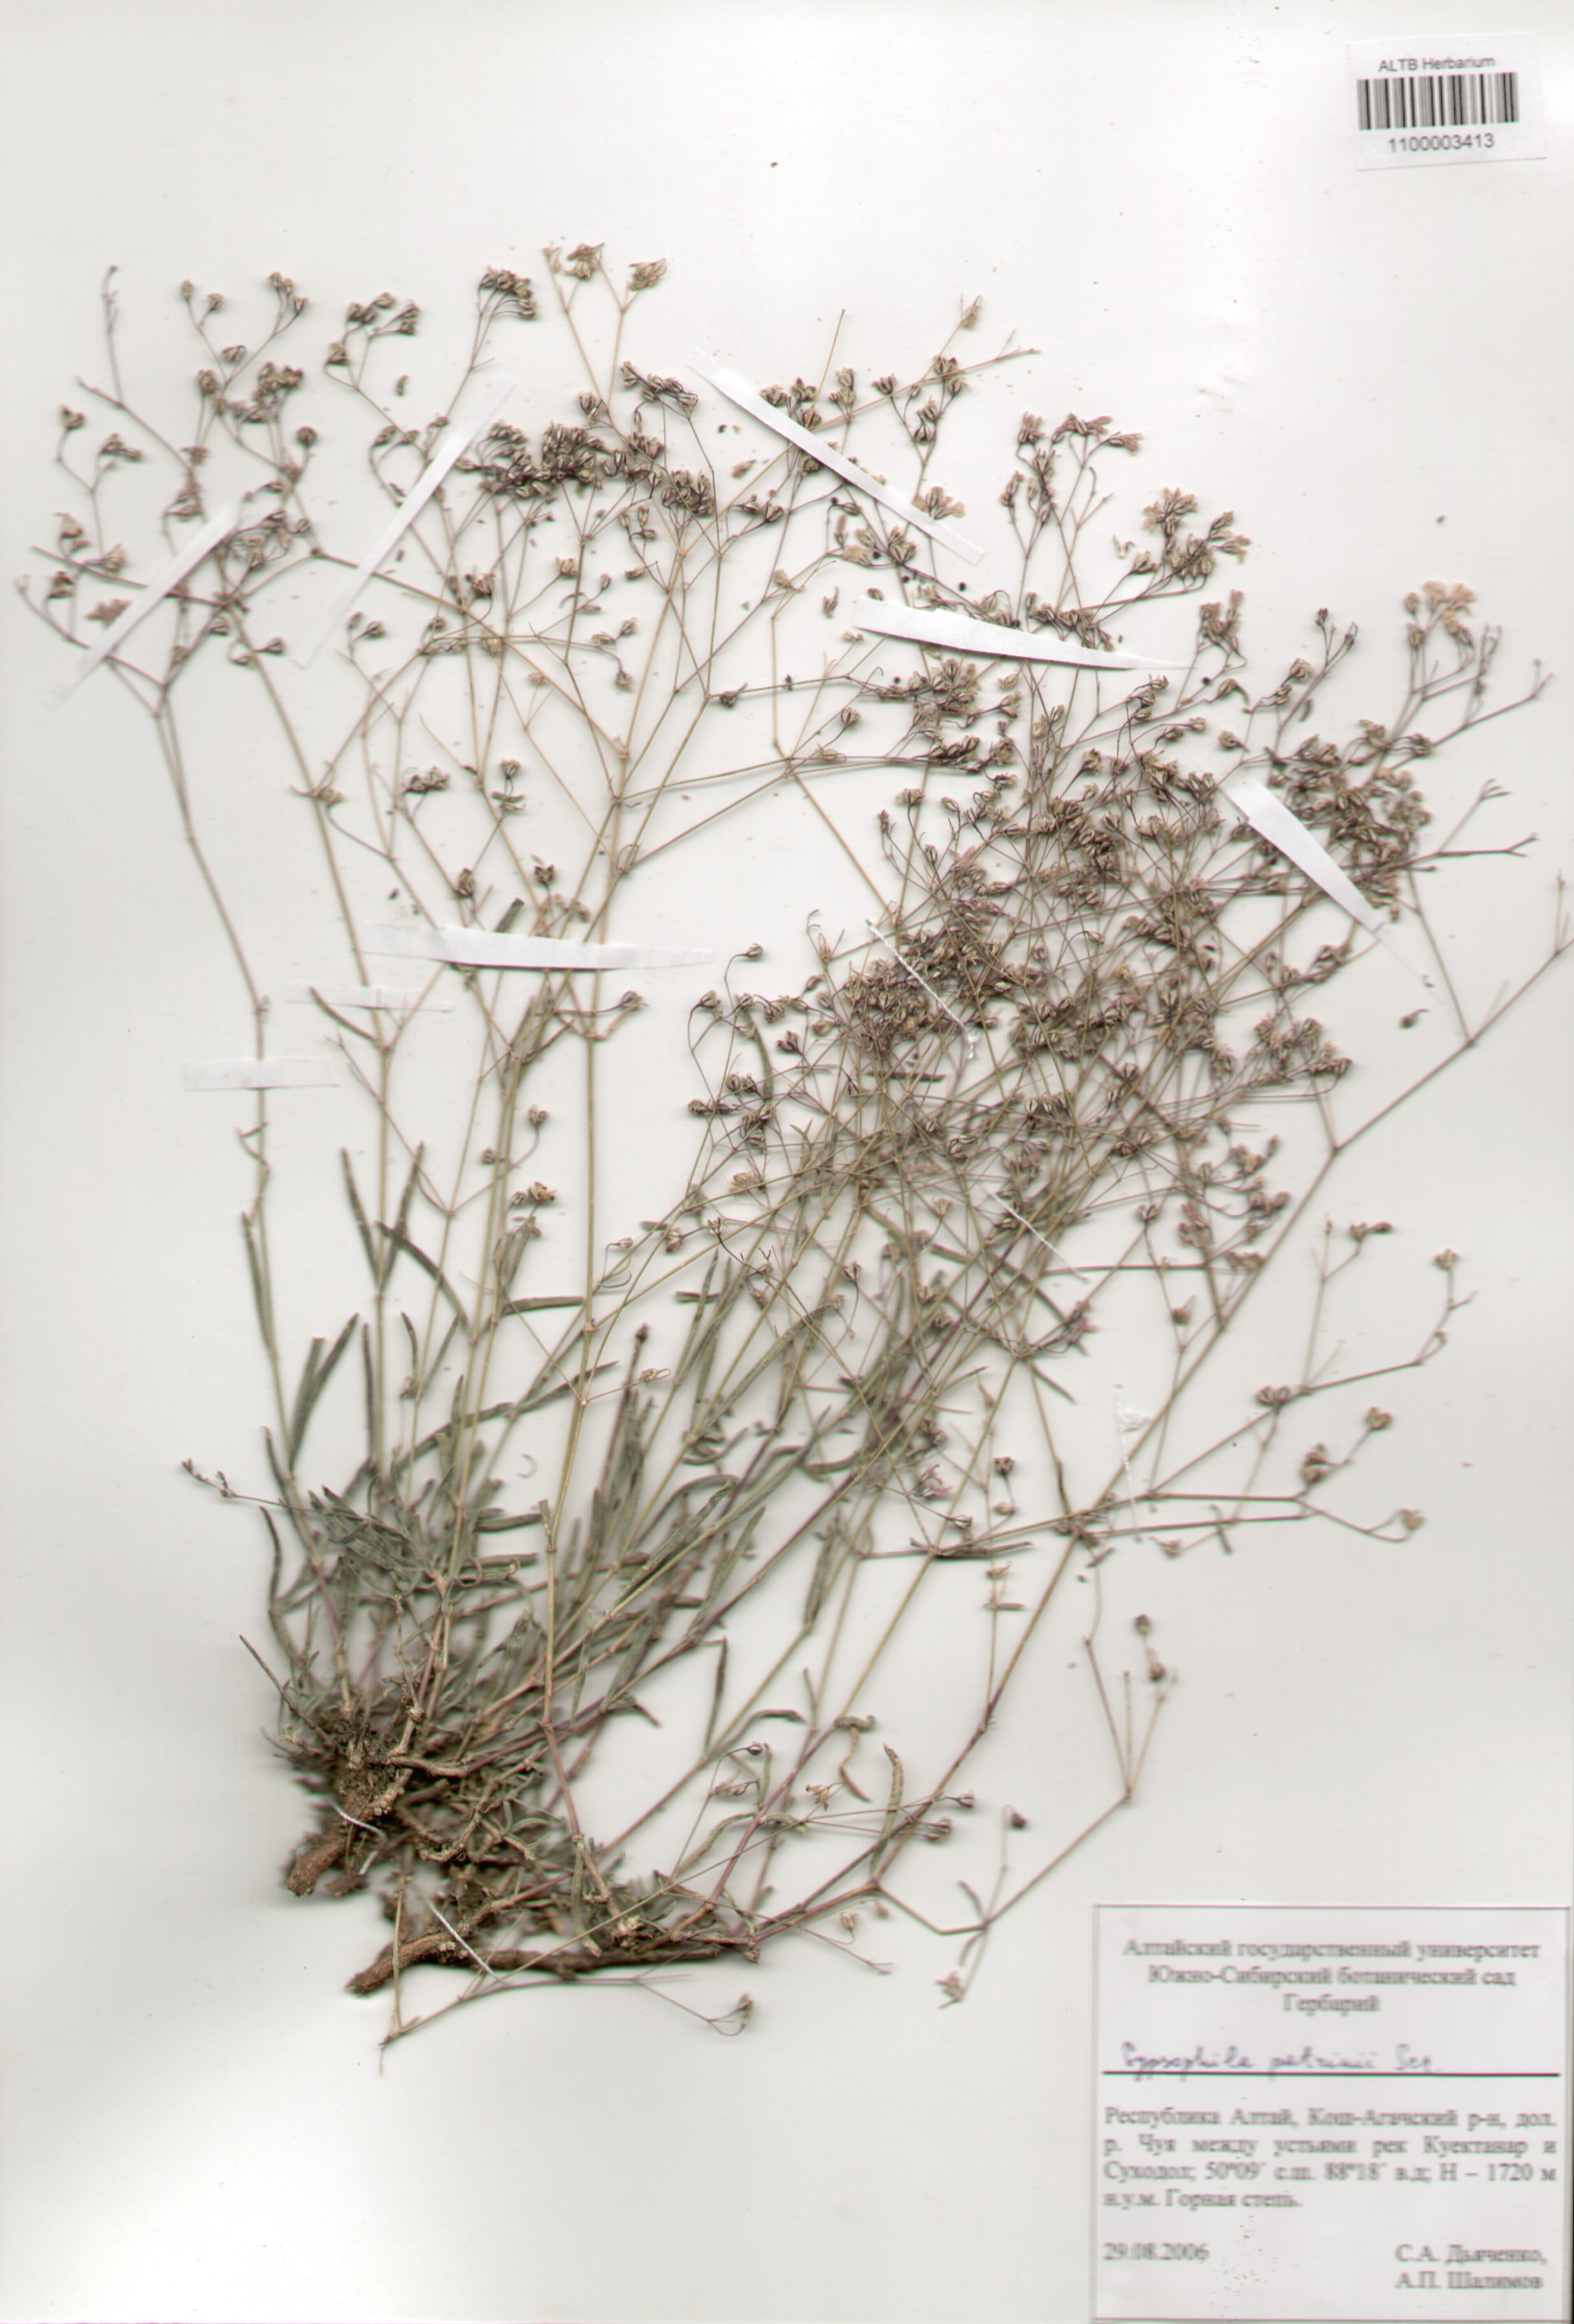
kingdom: Plantae
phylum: Tracheophyta
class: Magnoliopsida
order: Caryophyllales
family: Caryophyllaceae
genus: Gypsophila
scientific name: Gypsophila patrinii
